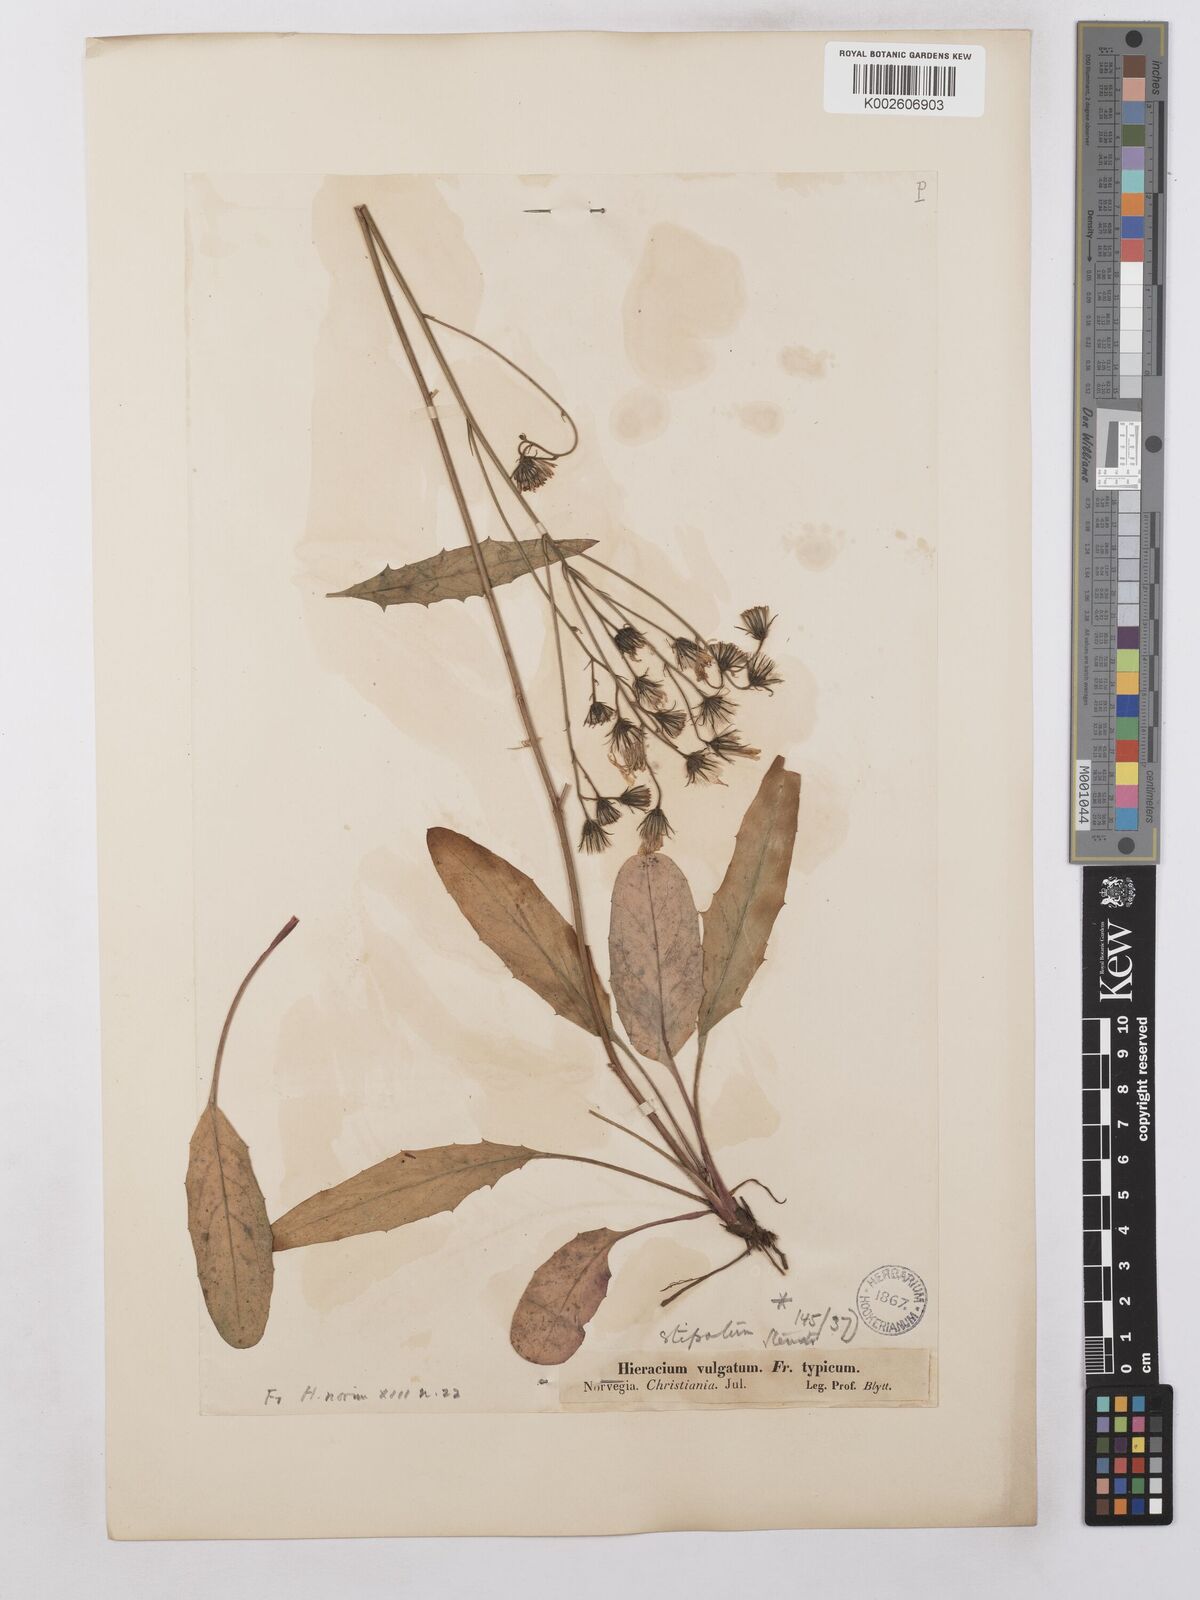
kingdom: Plantae
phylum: Tracheophyta
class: Magnoliopsida
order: Asterales
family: Asteraceae
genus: Hieracium
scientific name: Hieracium levicaule
